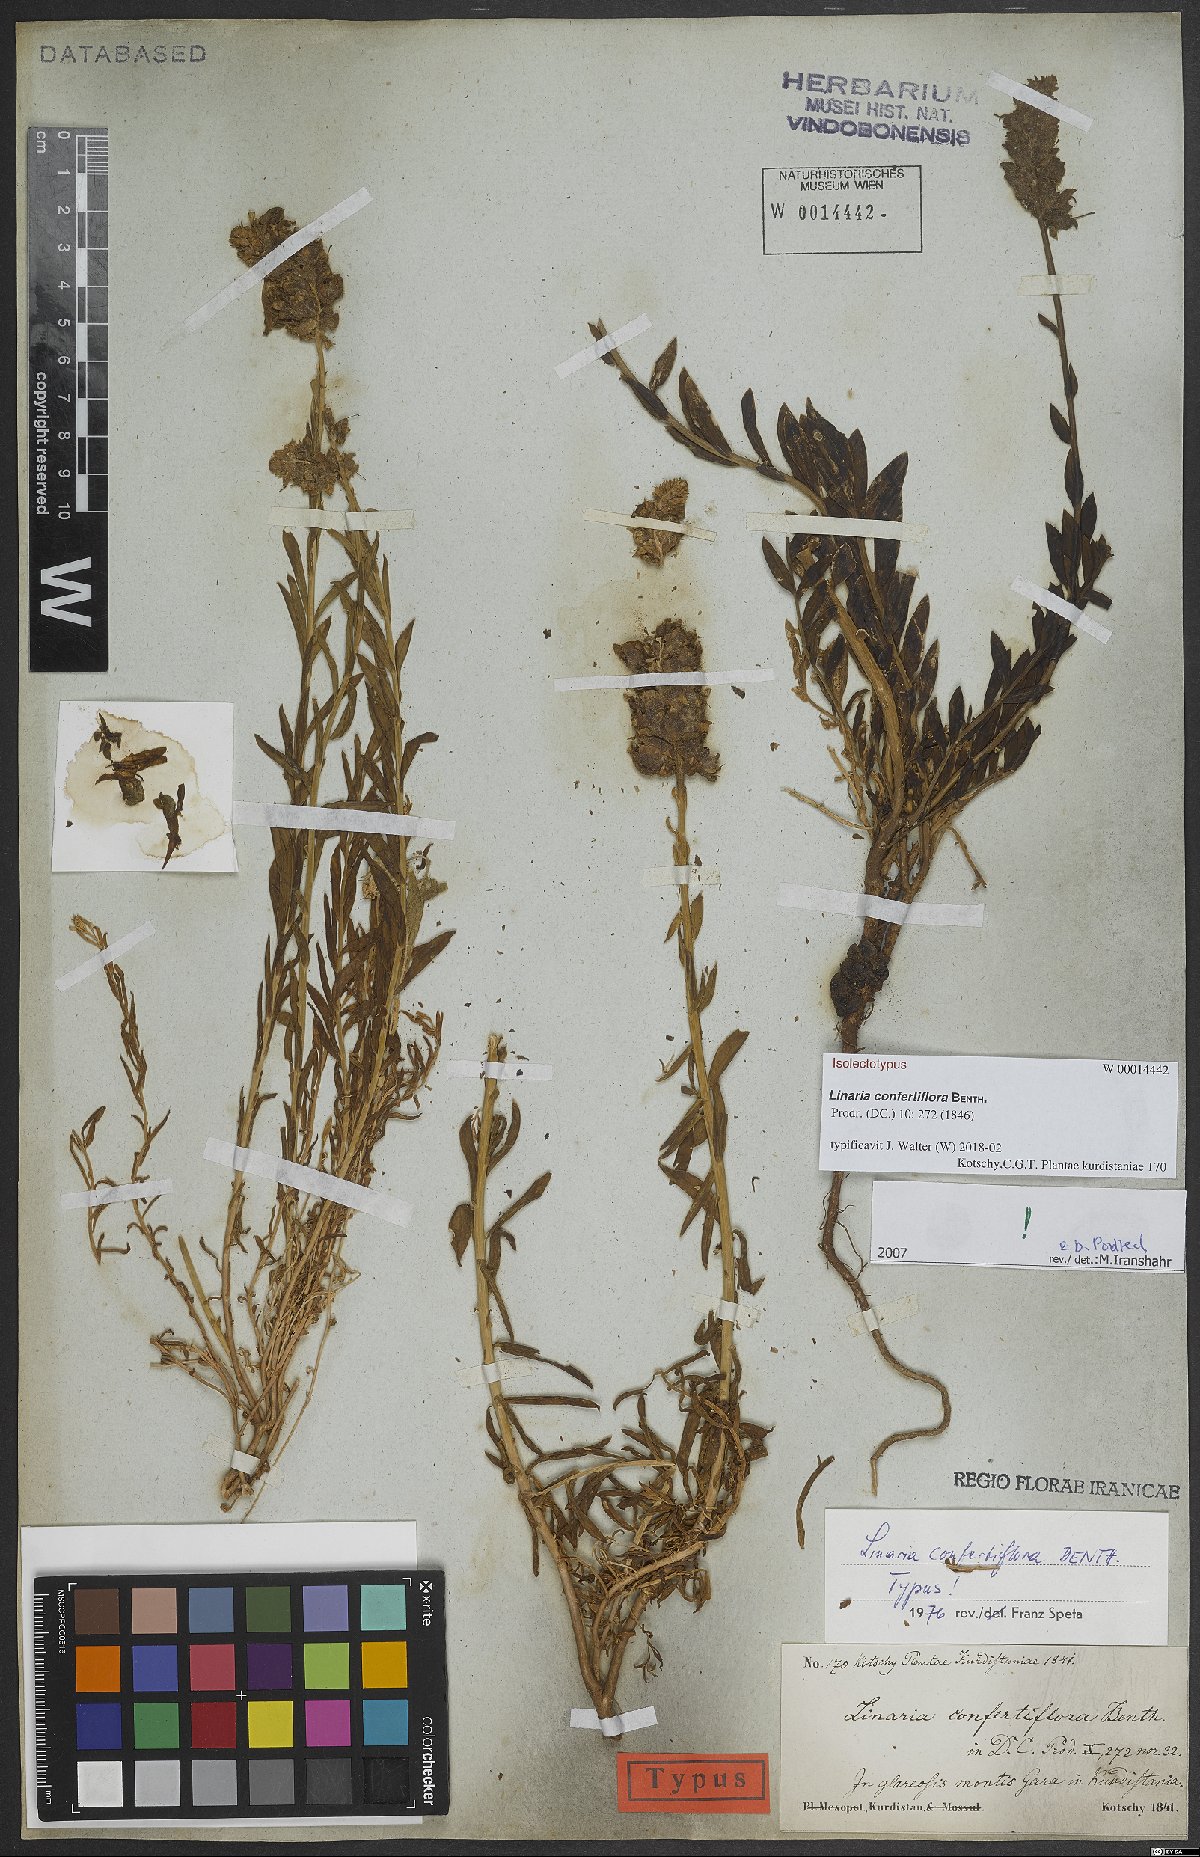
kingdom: Plantae
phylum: Tracheophyta
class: Magnoliopsida
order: Lamiales
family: Plantaginaceae
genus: Linaria
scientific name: Linaria confertiflora
